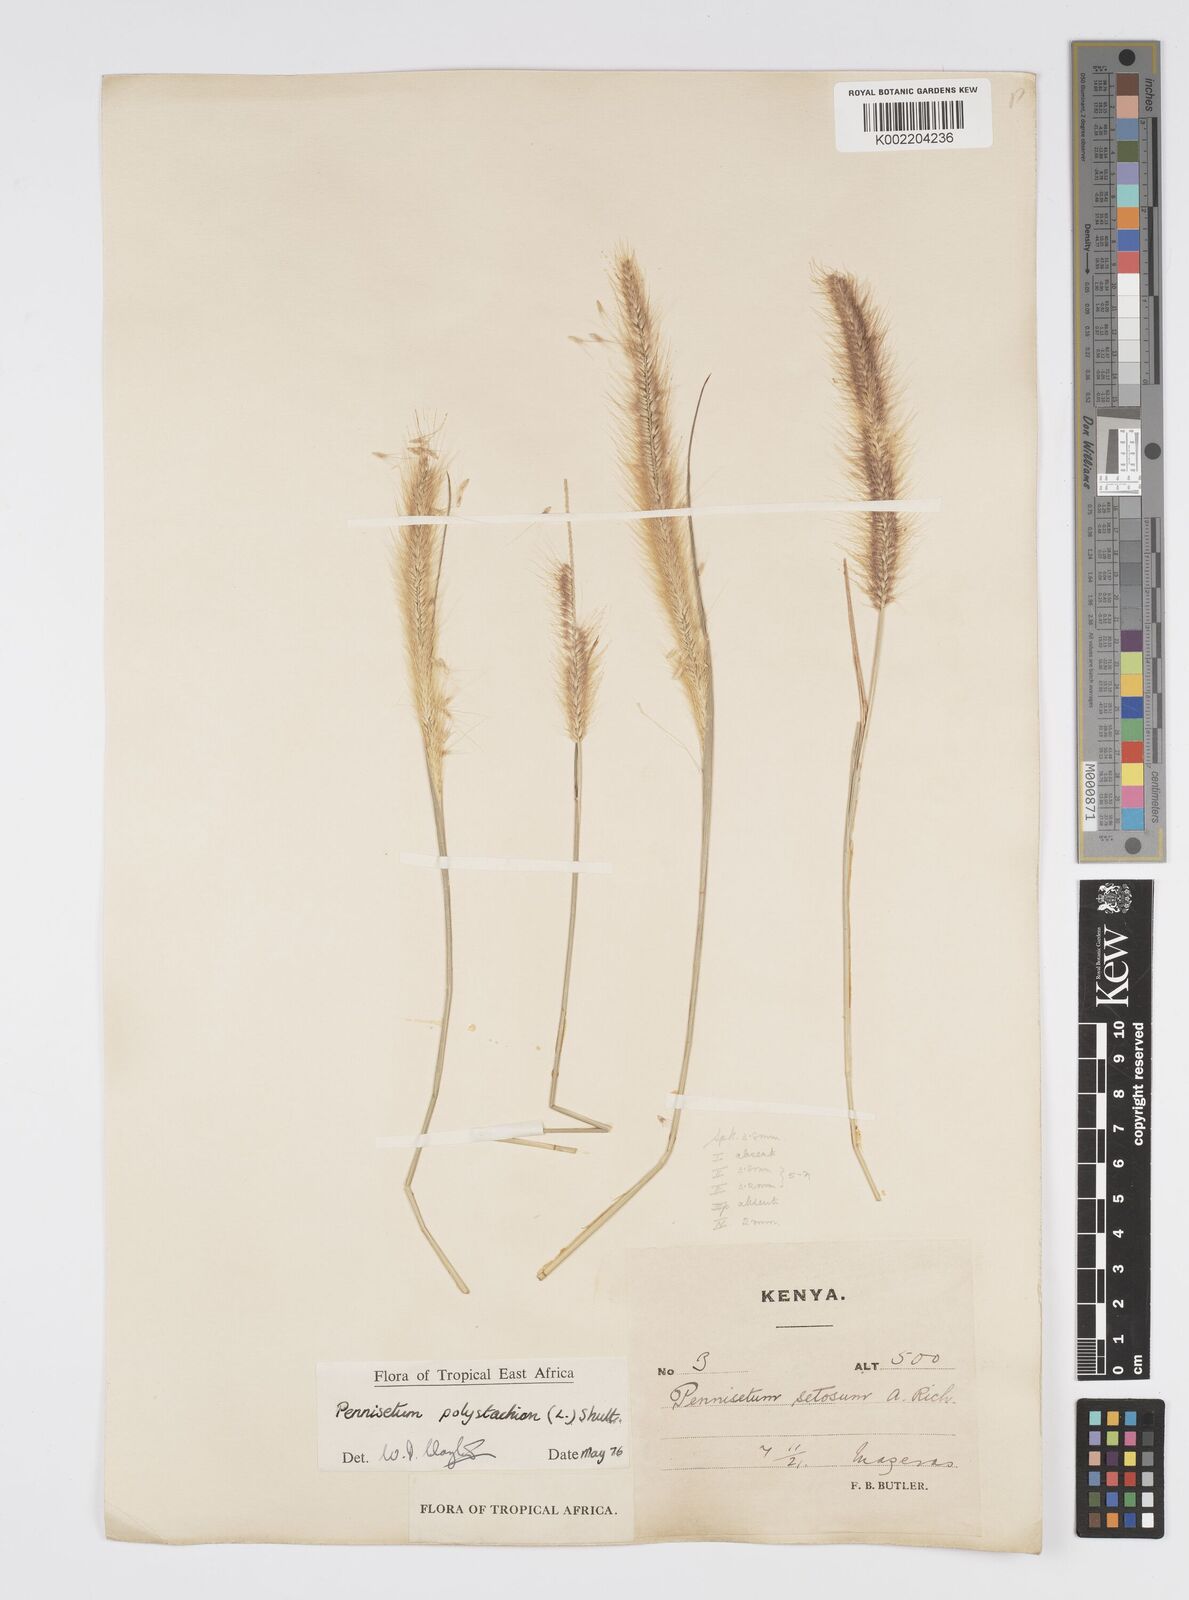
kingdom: Plantae
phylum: Tracheophyta
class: Liliopsida
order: Poales
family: Poaceae
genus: Setaria
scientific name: Setaria parviflora
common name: Knotroot bristle-grass
